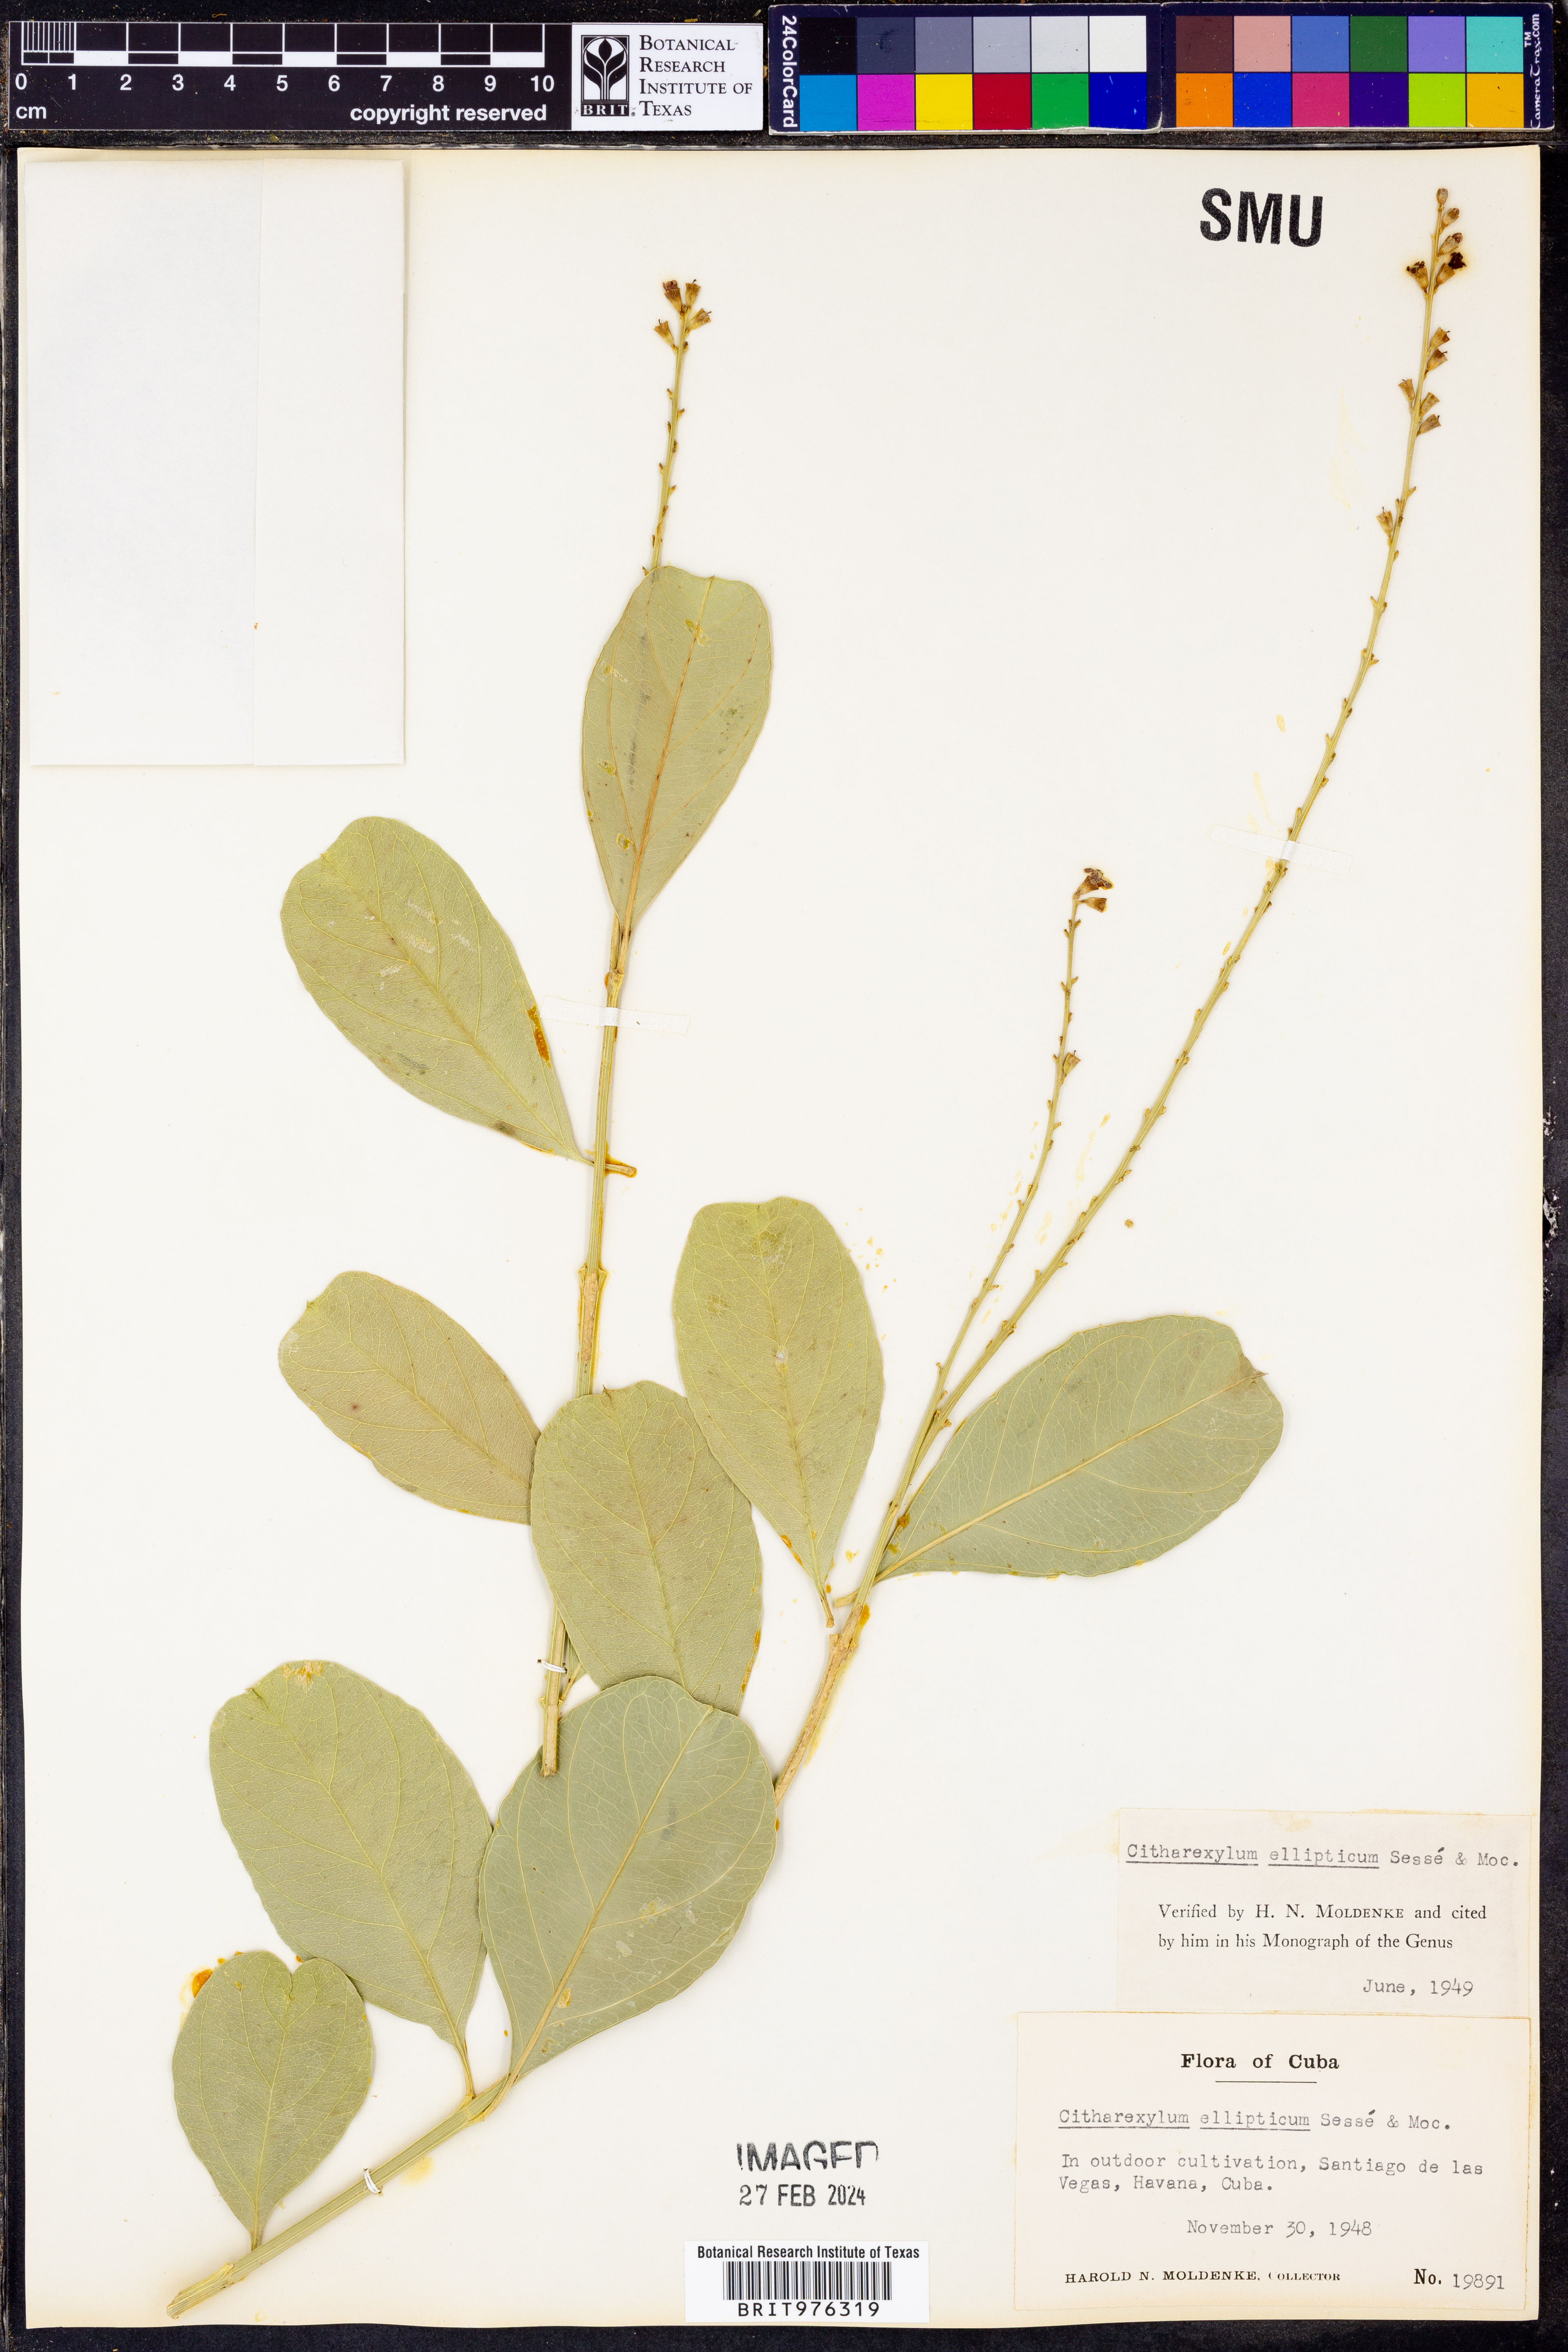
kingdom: Plantae
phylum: Tracheophyta
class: Magnoliopsida
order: Lamiales
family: Verbenaceae
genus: Citharexylum
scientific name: Citharexylum
